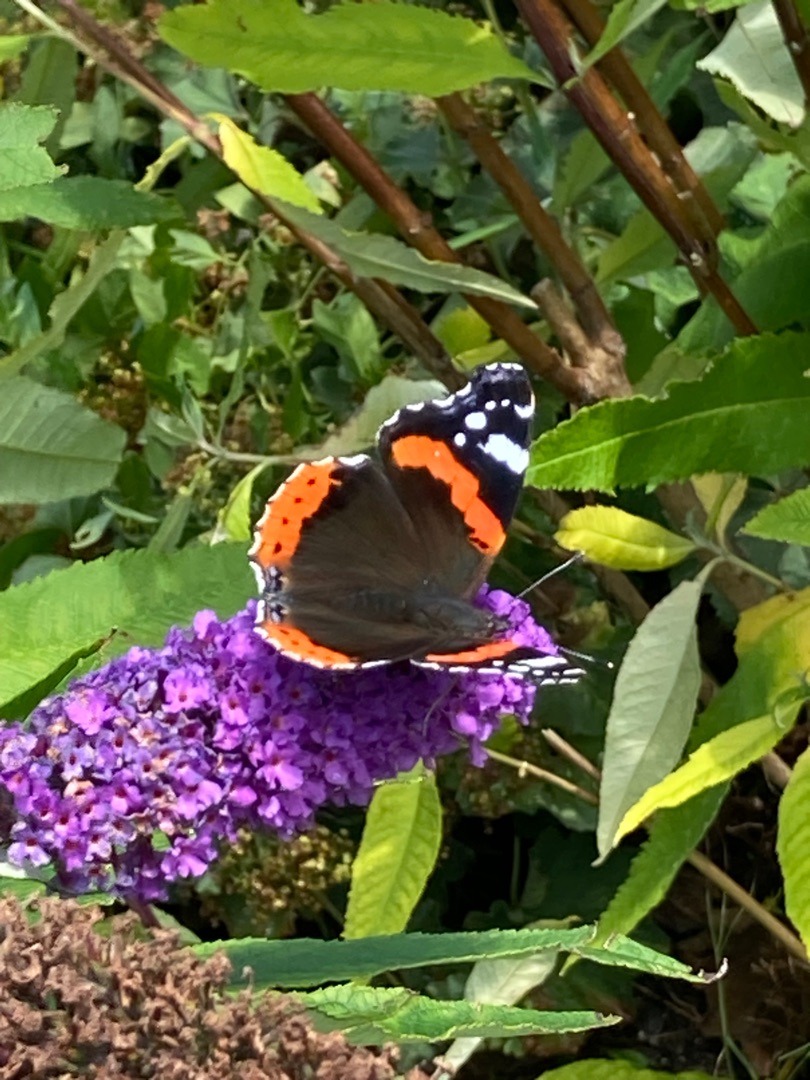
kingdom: Animalia
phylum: Arthropoda
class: Insecta
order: Lepidoptera
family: Nymphalidae
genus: Vanessa
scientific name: Vanessa atalanta
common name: Admiral
